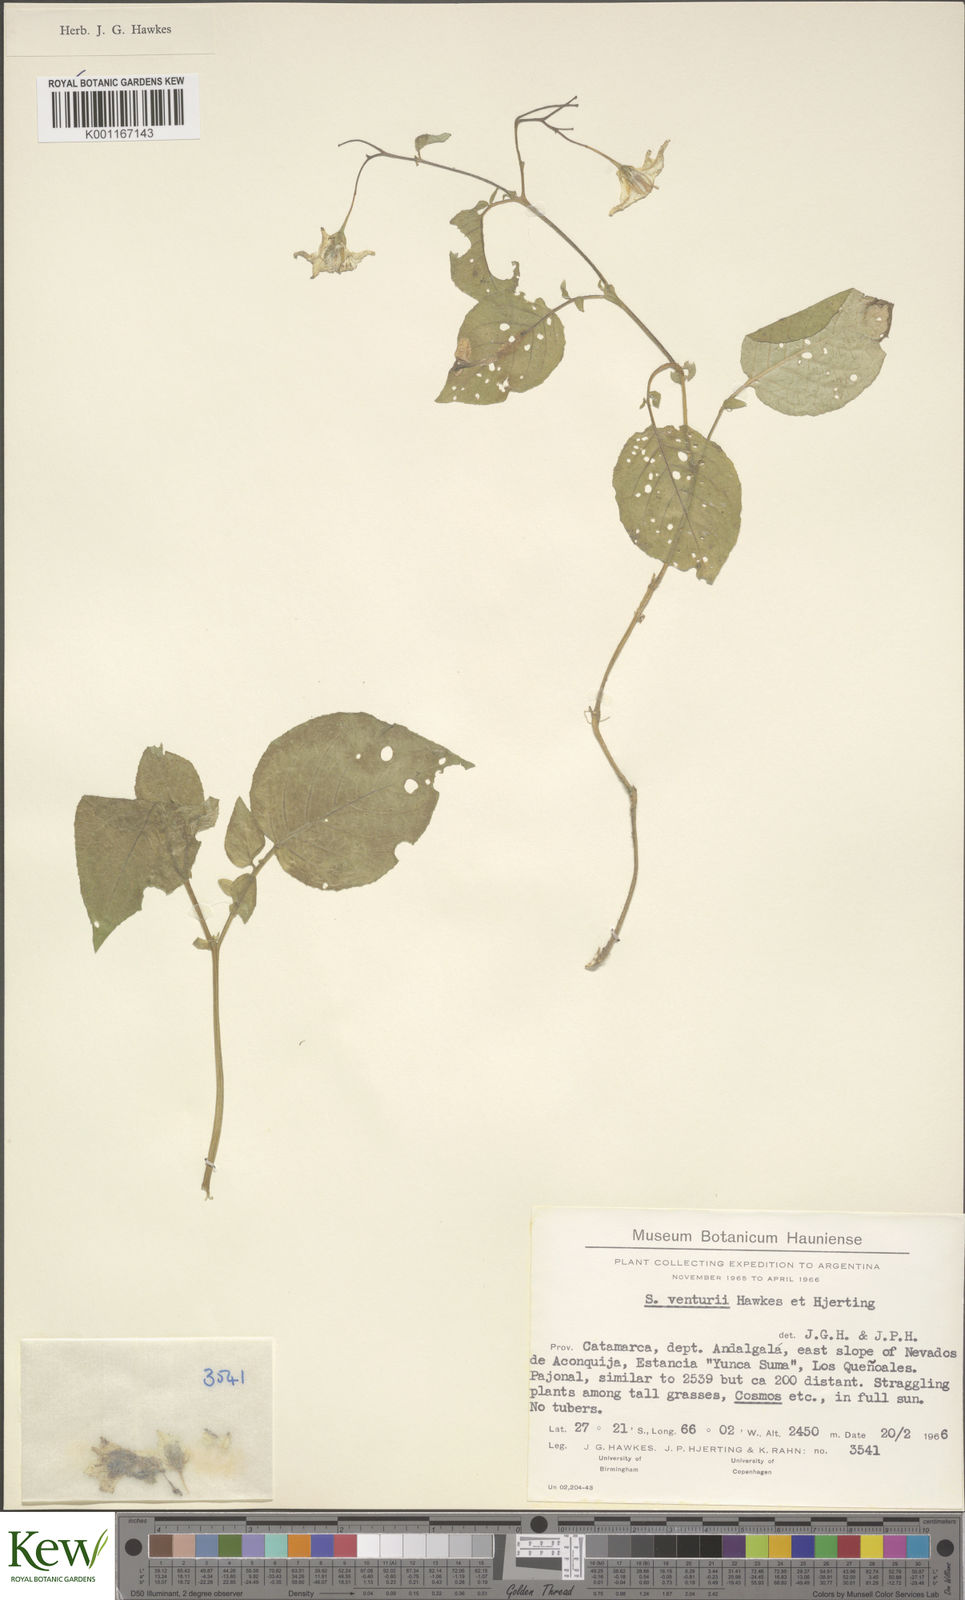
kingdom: Plantae
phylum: Tracheophyta
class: Magnoliopsida
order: Solanales
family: Solanaceae
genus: Solanum
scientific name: Solanum venturii
